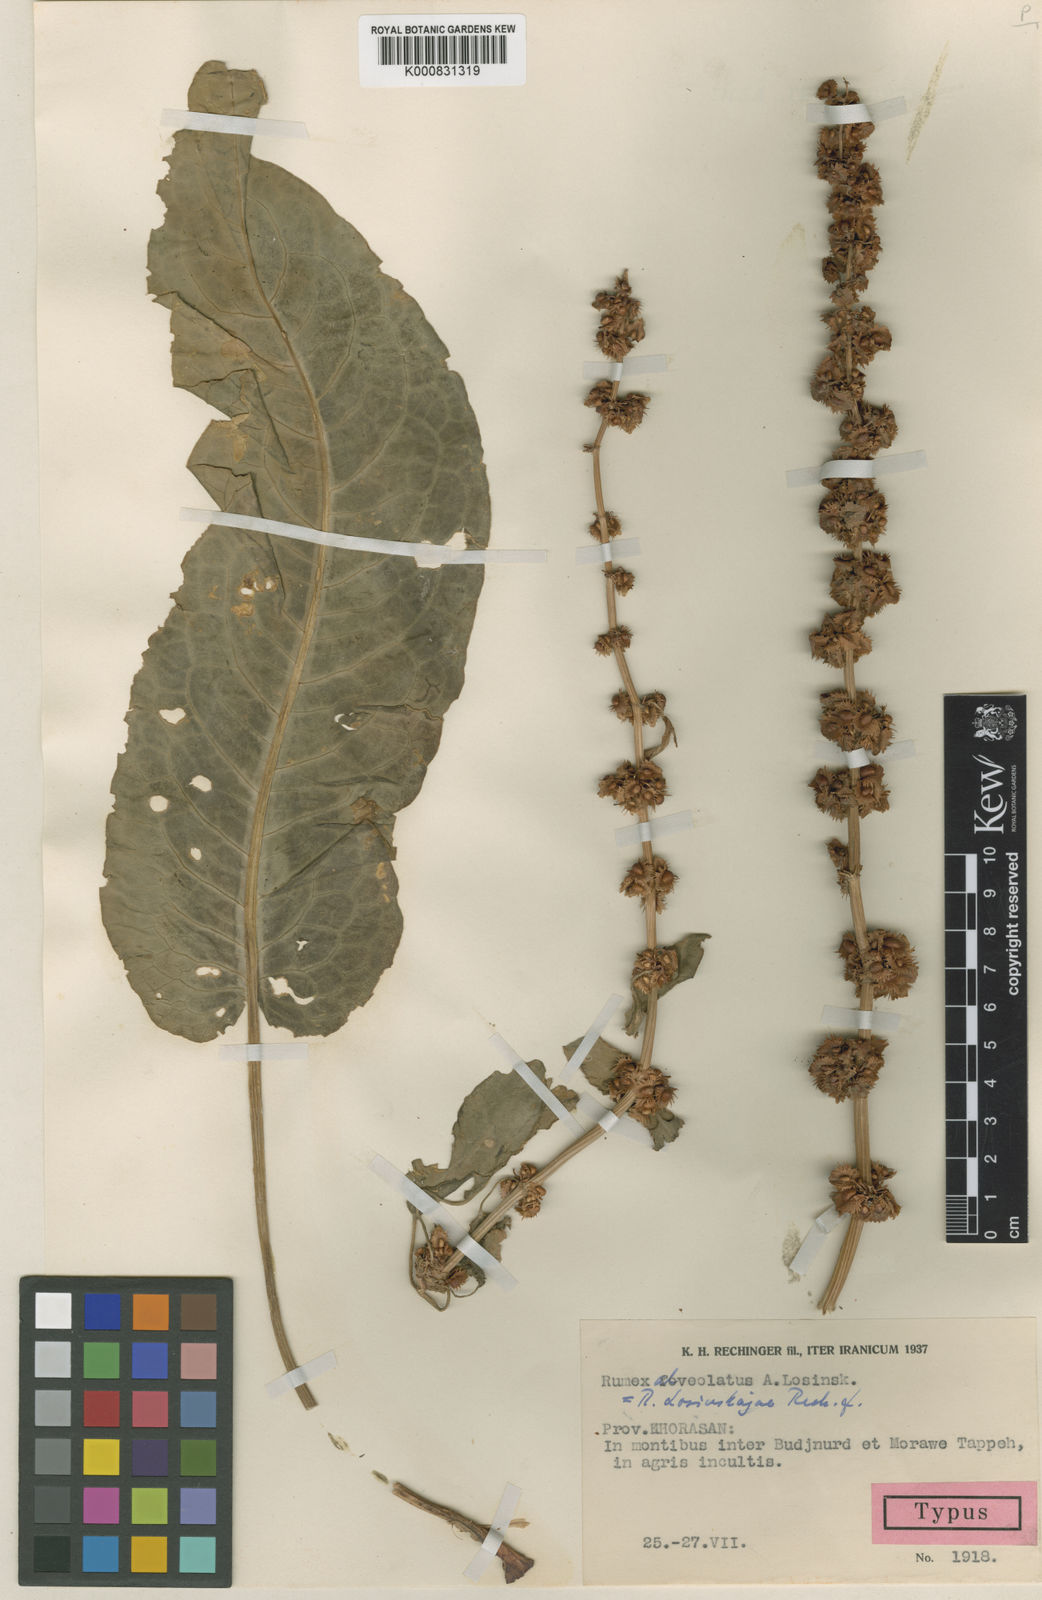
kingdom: Plantae
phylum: Tracheophyta
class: Magnoliopsida
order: Caryophyllales
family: Polygonaceae
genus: Rumex
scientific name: Rumex alveolatus
